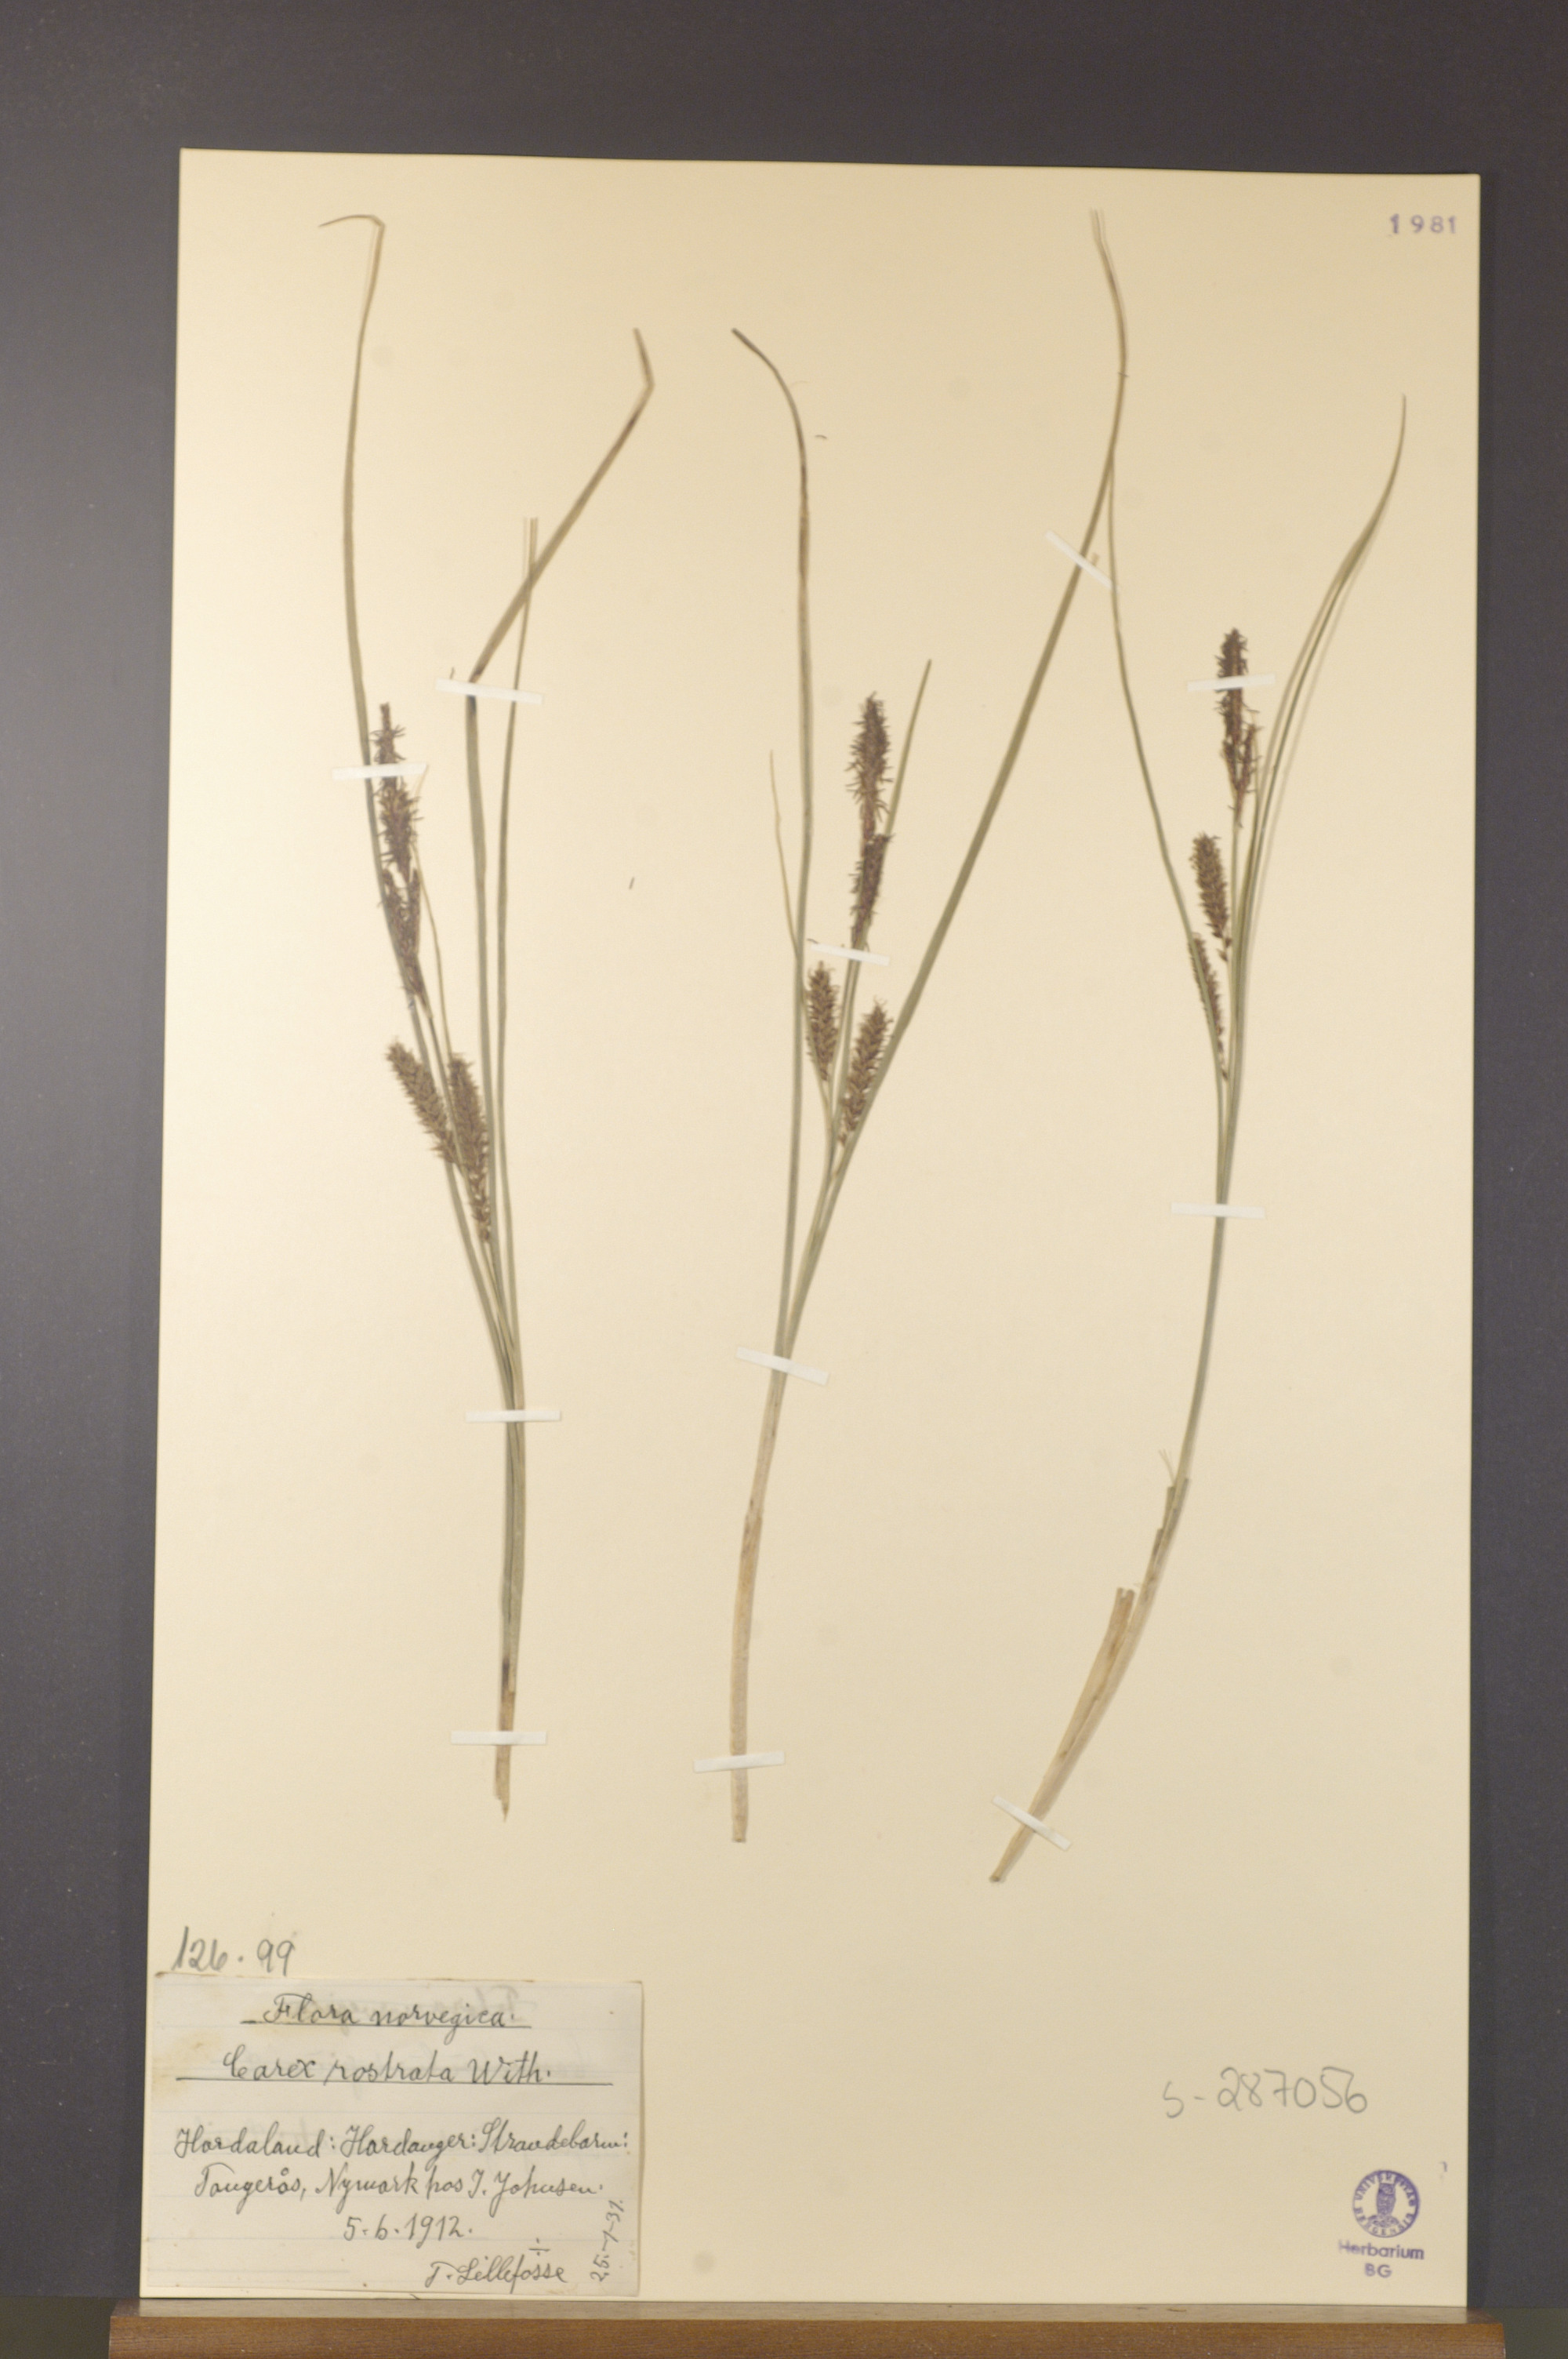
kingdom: Plantae
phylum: Tracheophyta
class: Liliopsida
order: Poales
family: Cyperaceae
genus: Carex
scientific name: Carex rostrata
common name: Bottle sedge
